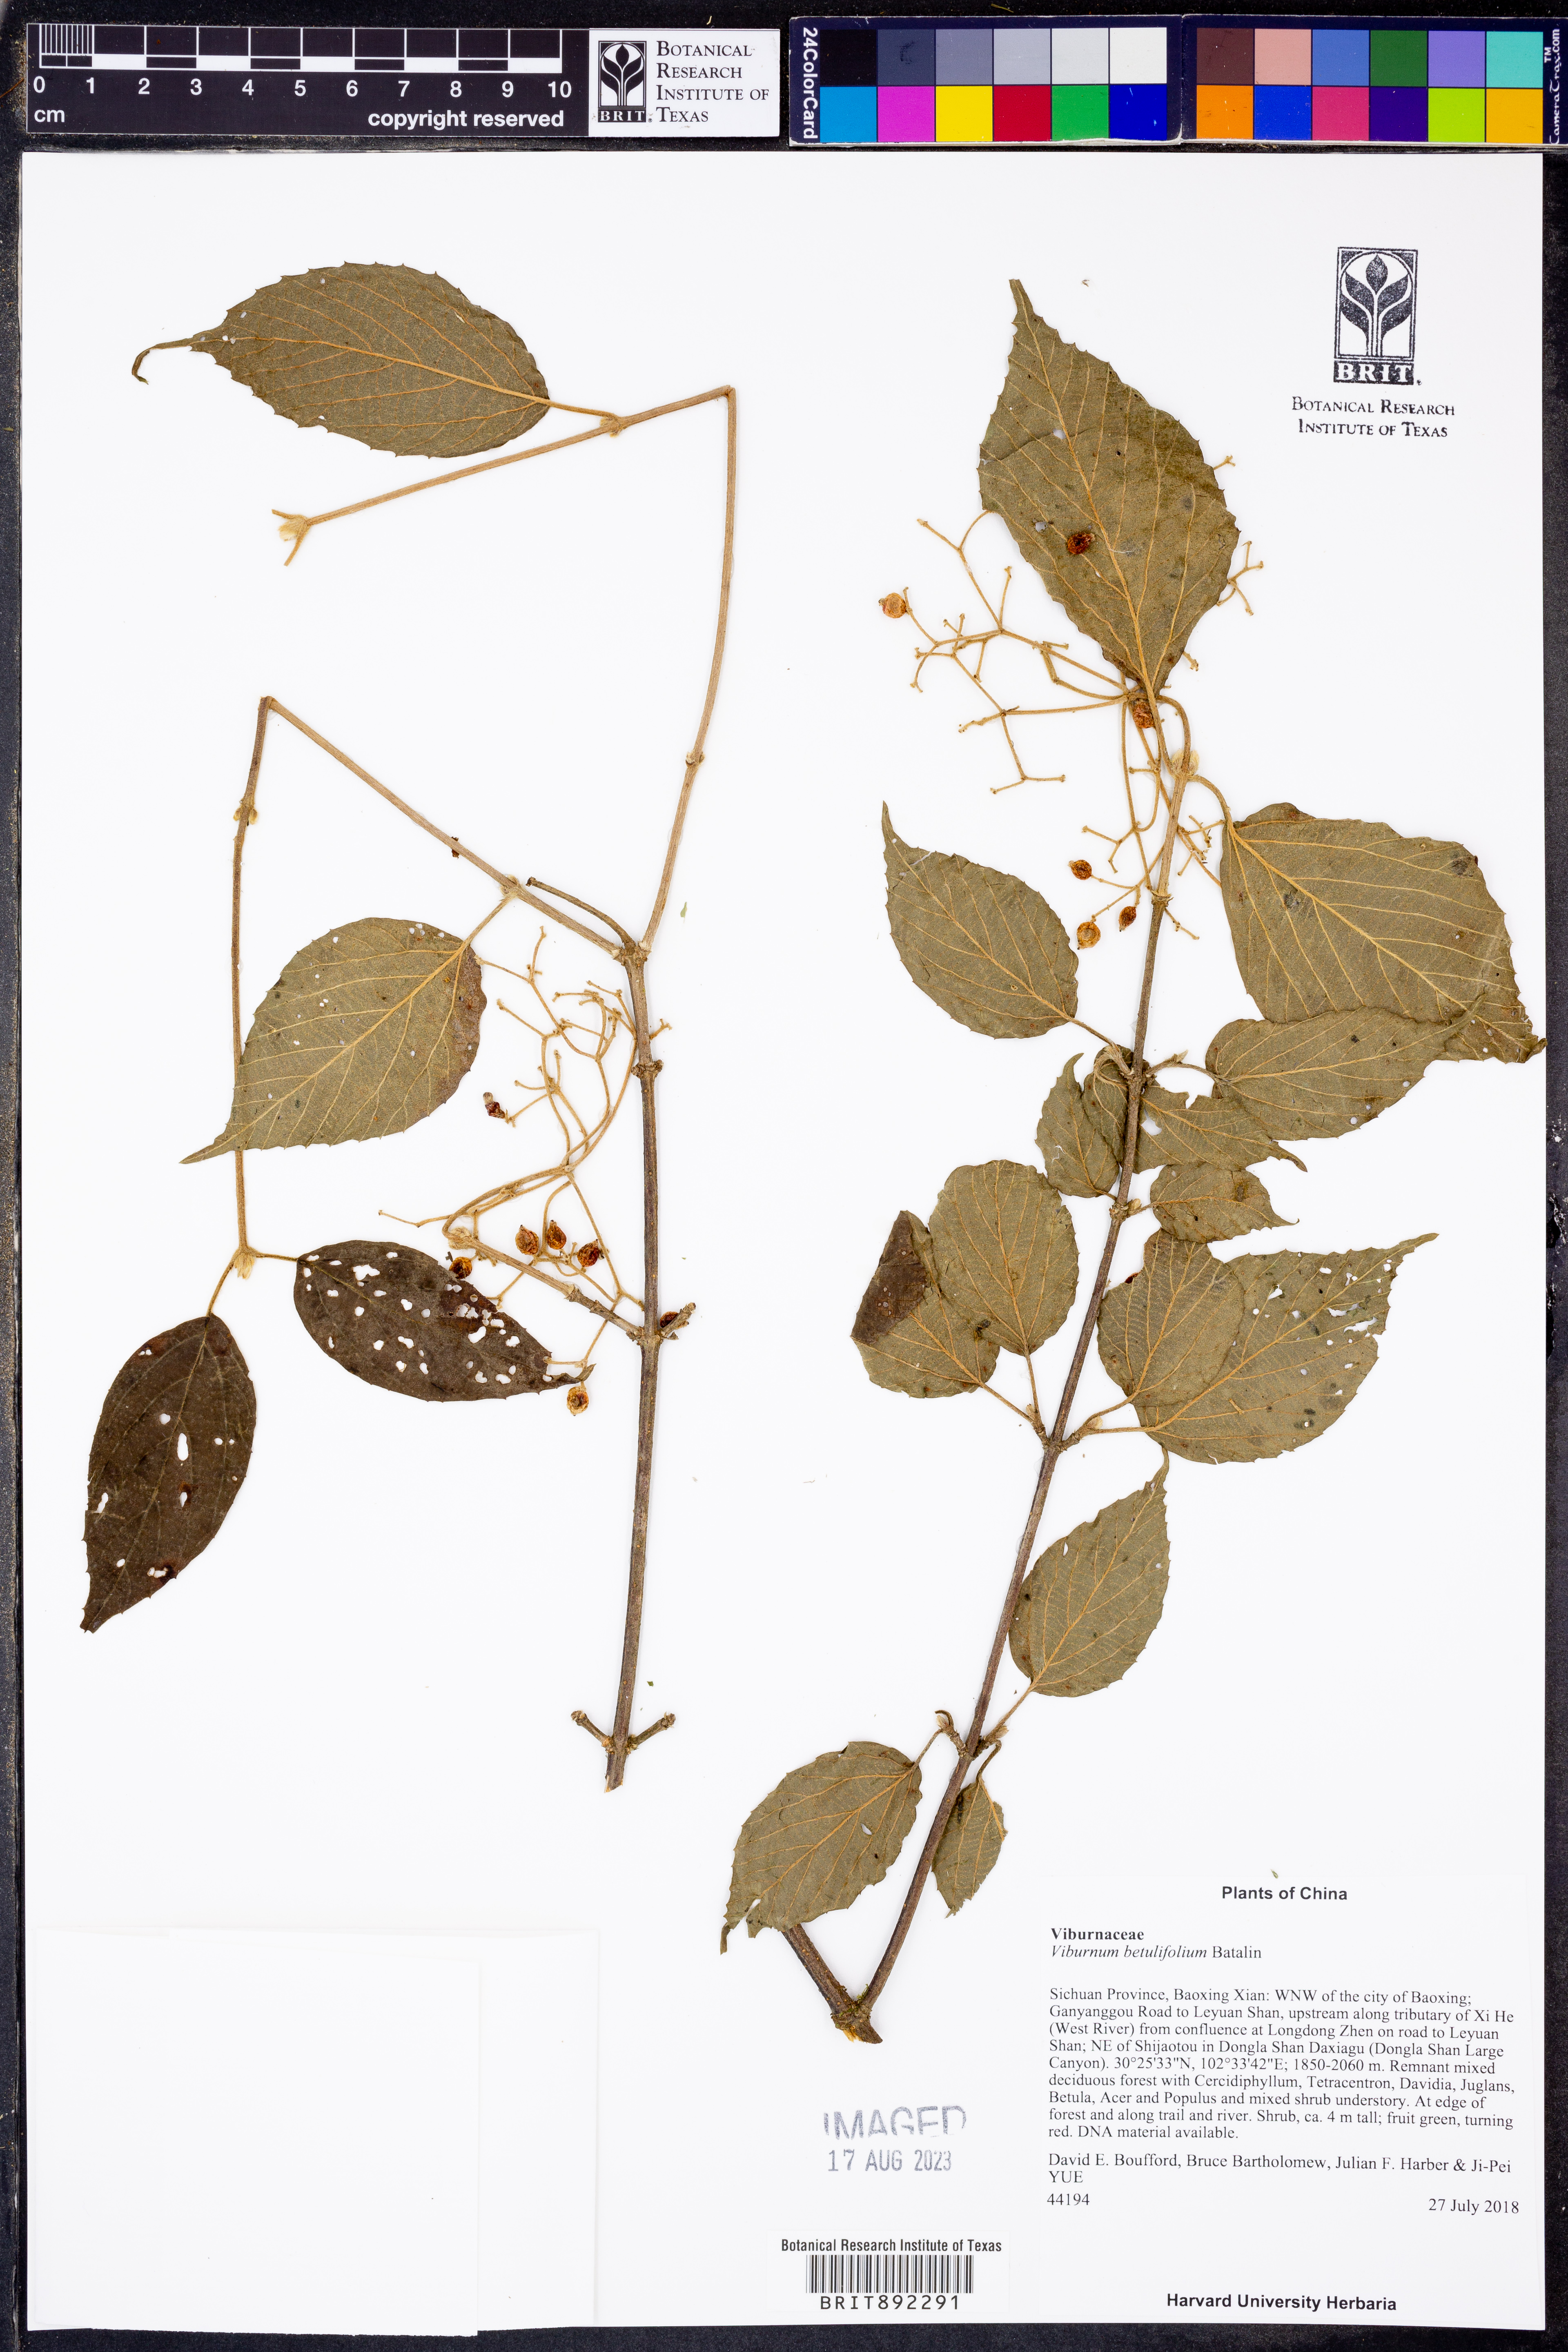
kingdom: Plantae
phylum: Tracheophyta
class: Magnoliopsida
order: Dipsacales
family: Viburnaceae
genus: Viburnum
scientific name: Viburnum betulifolium
